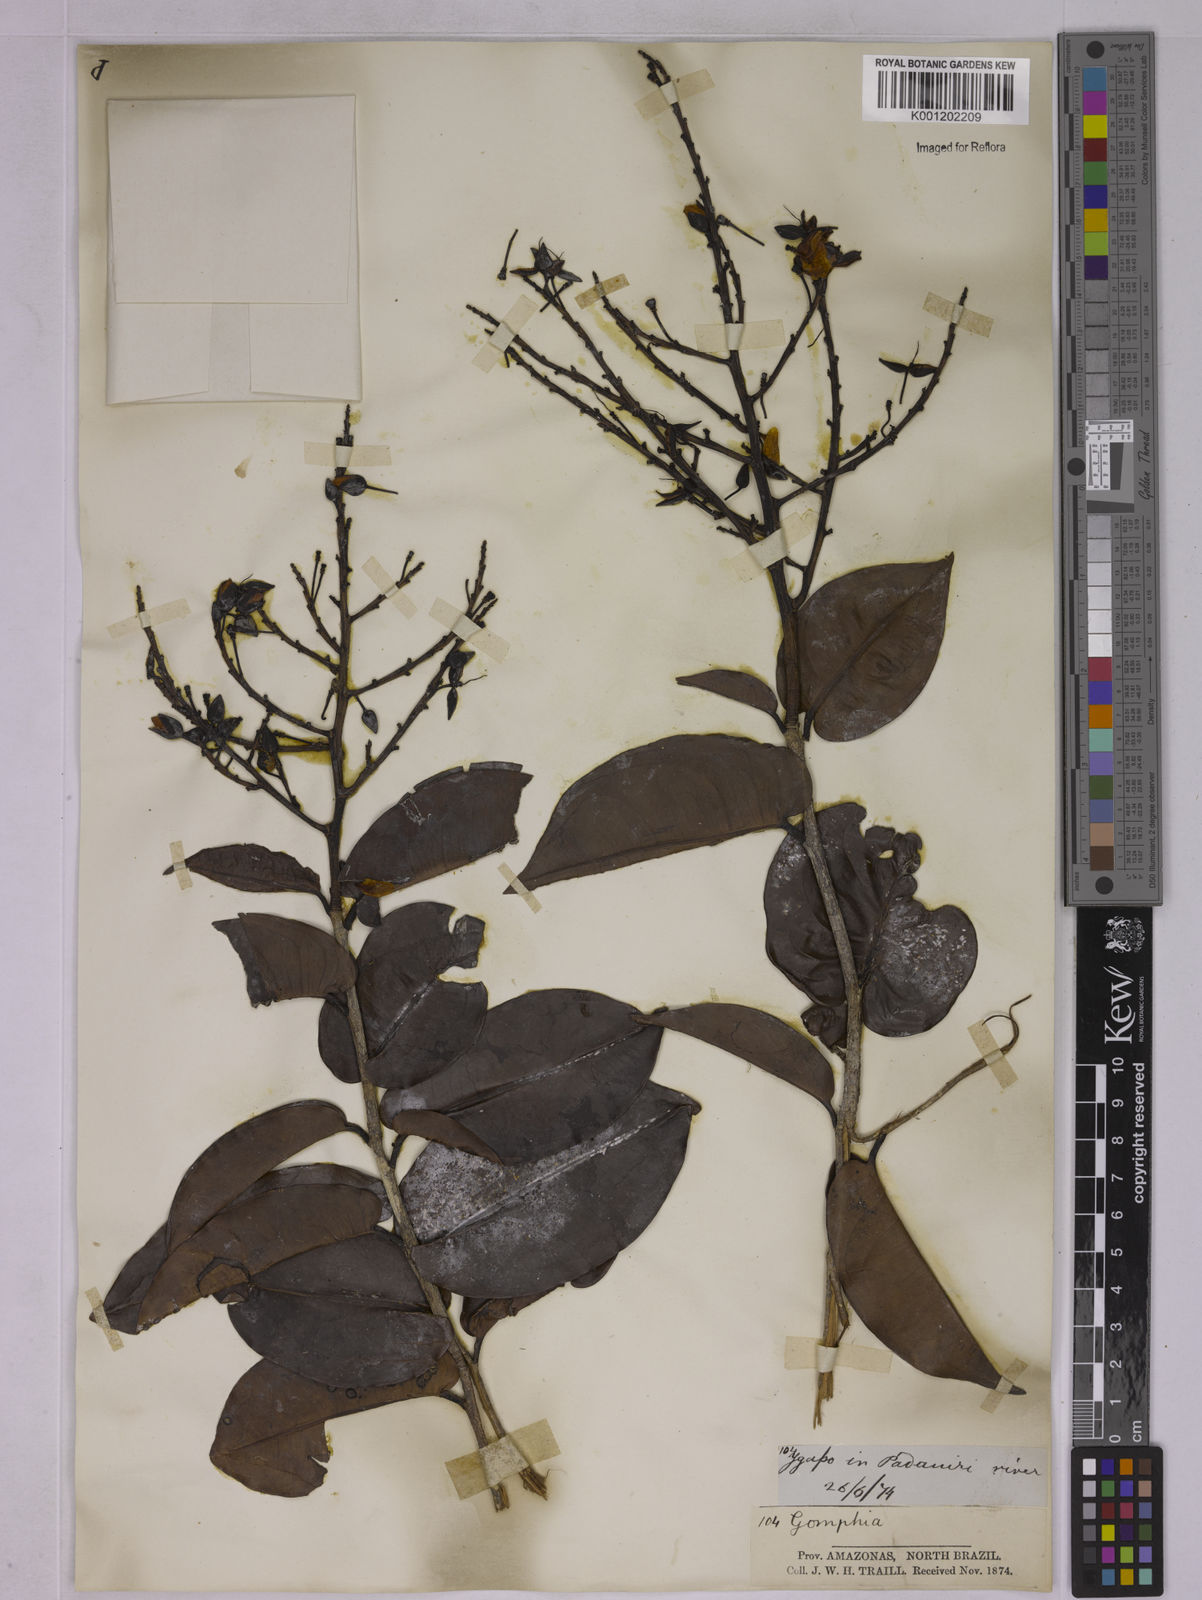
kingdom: Plantae
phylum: Tracheophyta
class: Magnoliopsida
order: Malpighiales
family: Ochnaceae
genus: Ouratea
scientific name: Ouratea
